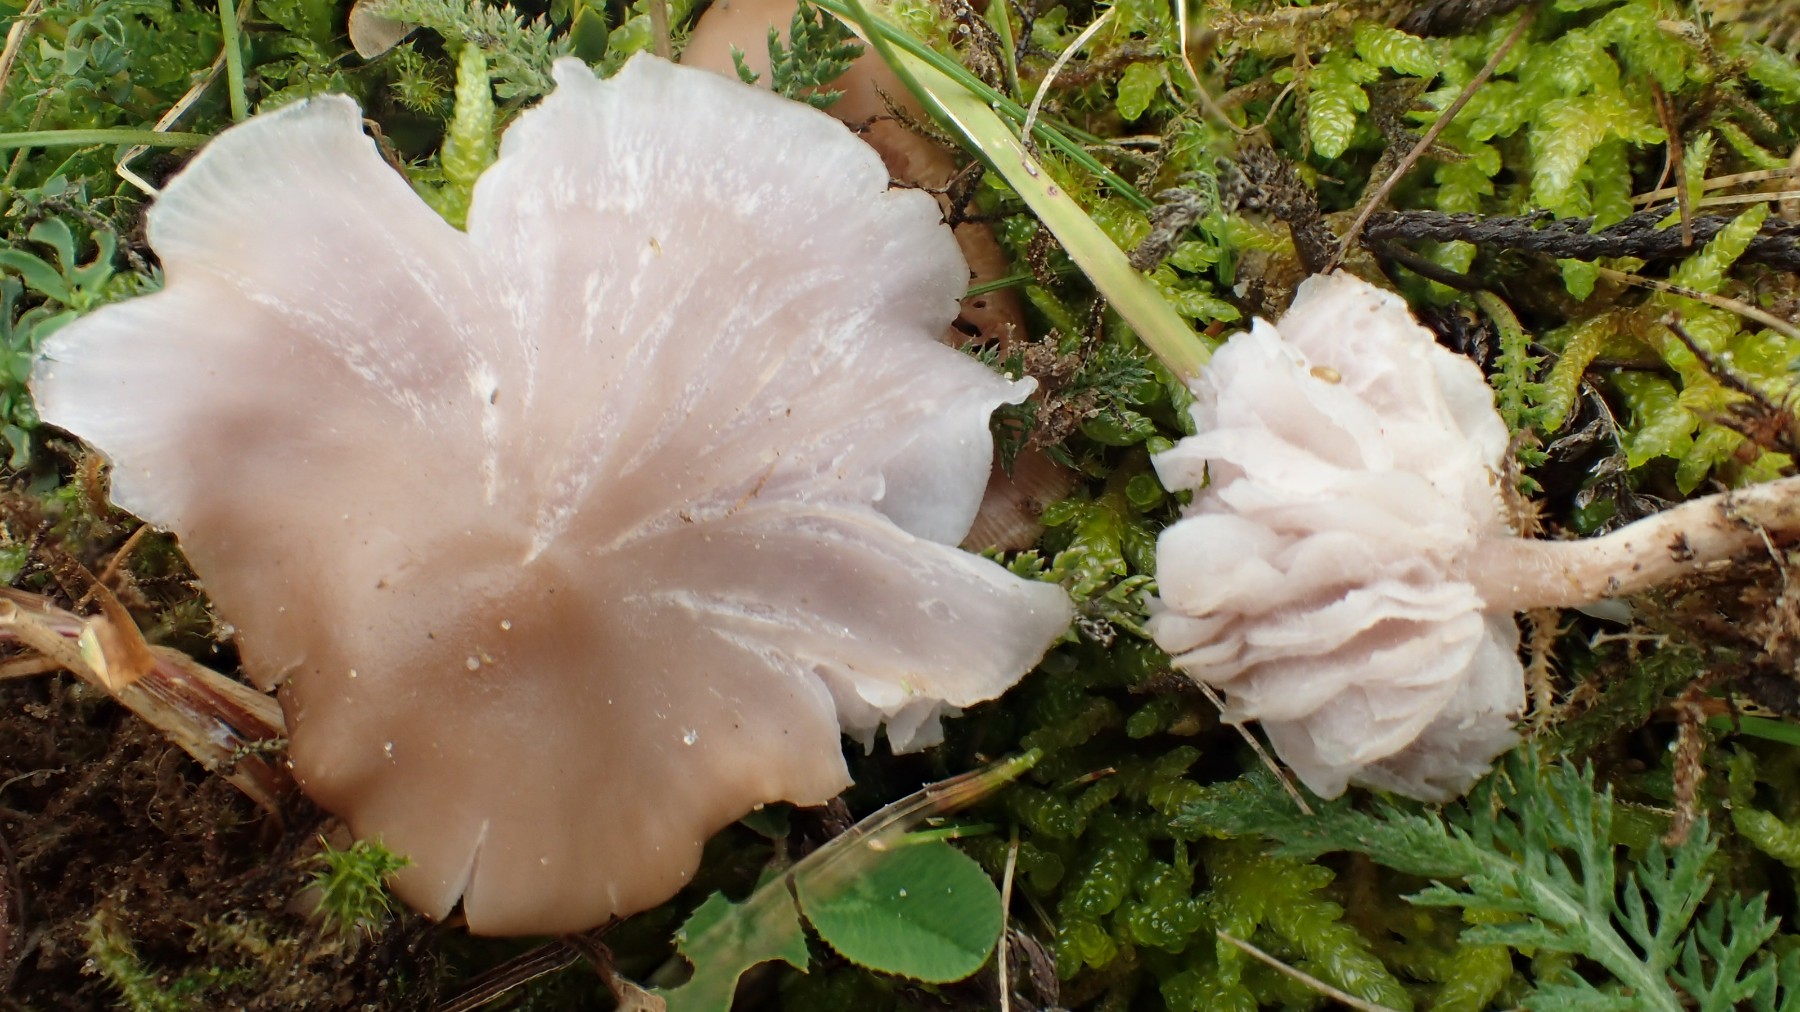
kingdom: Fungi
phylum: Basidiomycota
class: Agaricomycetes
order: Agaricales
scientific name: Agaricales
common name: champignonordenen
